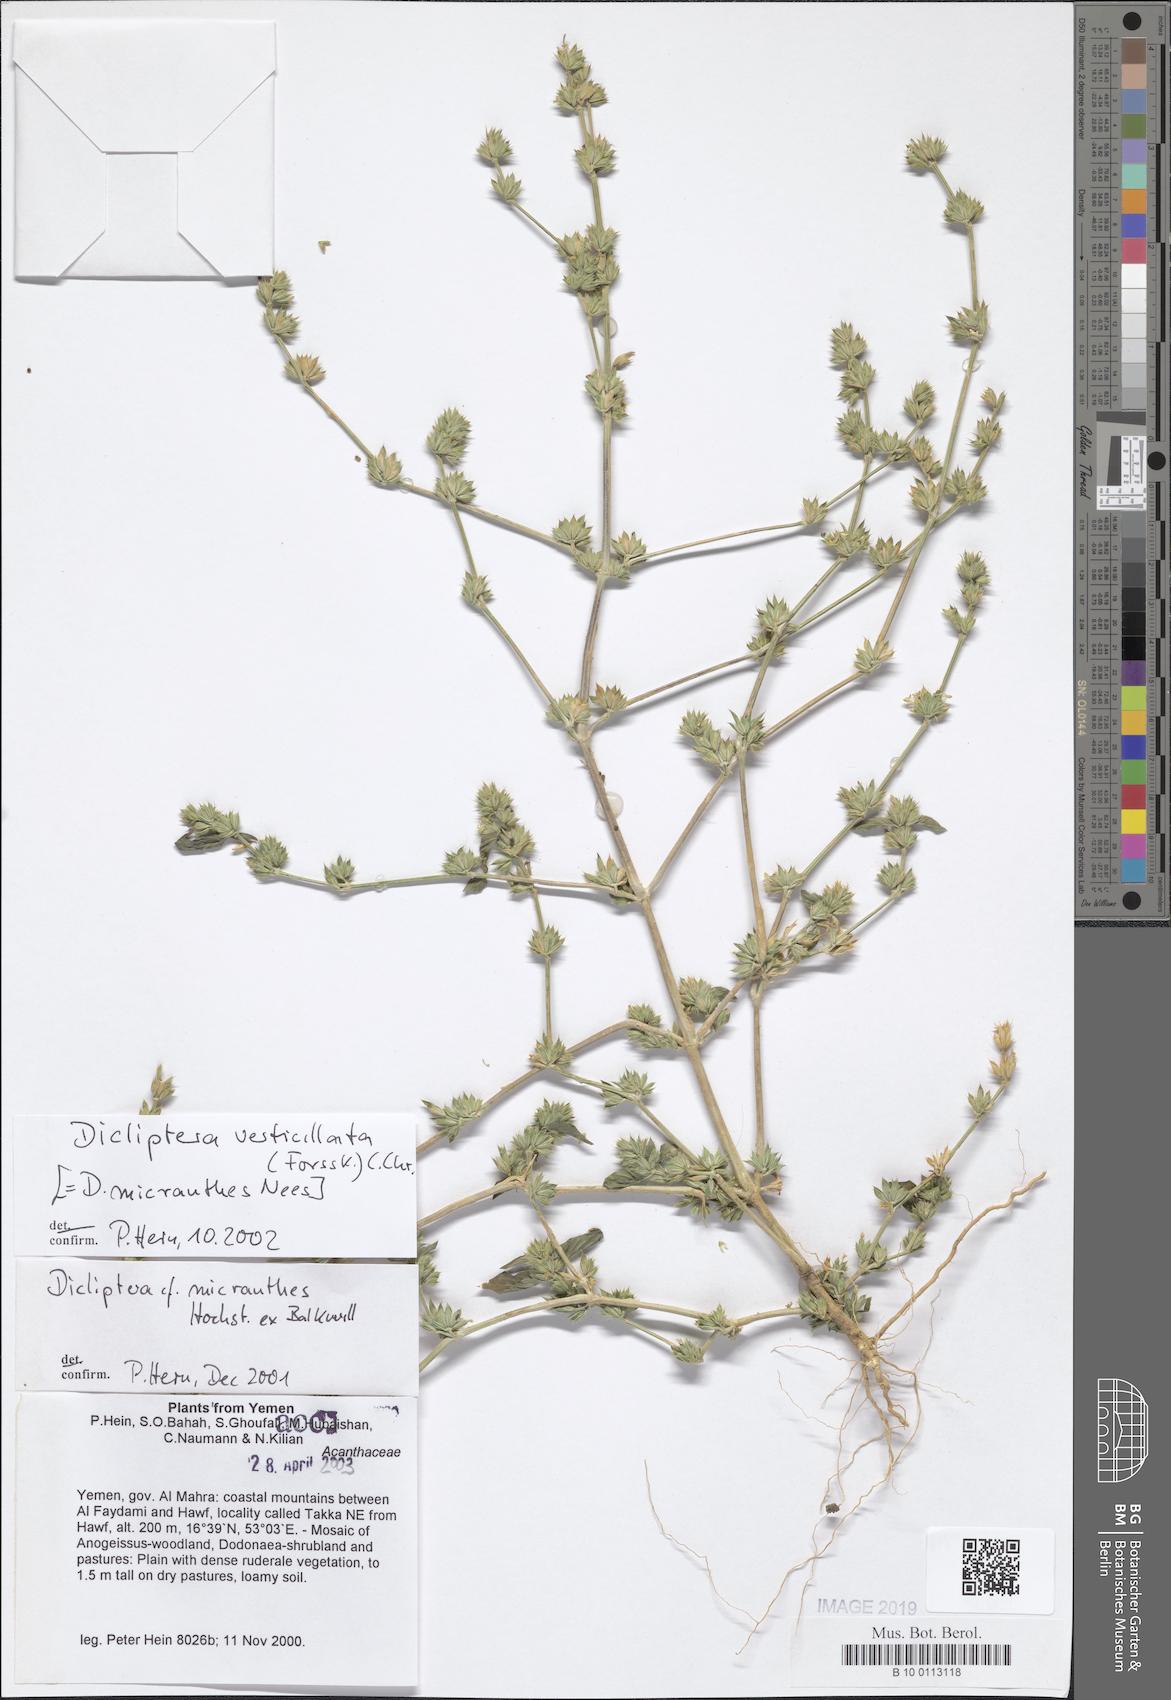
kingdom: Plantae
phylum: Tracheophyta
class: Magnoliopsida
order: Lamiales
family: Acanthaceae
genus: Dicliptera
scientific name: Dicliptera verticillata
